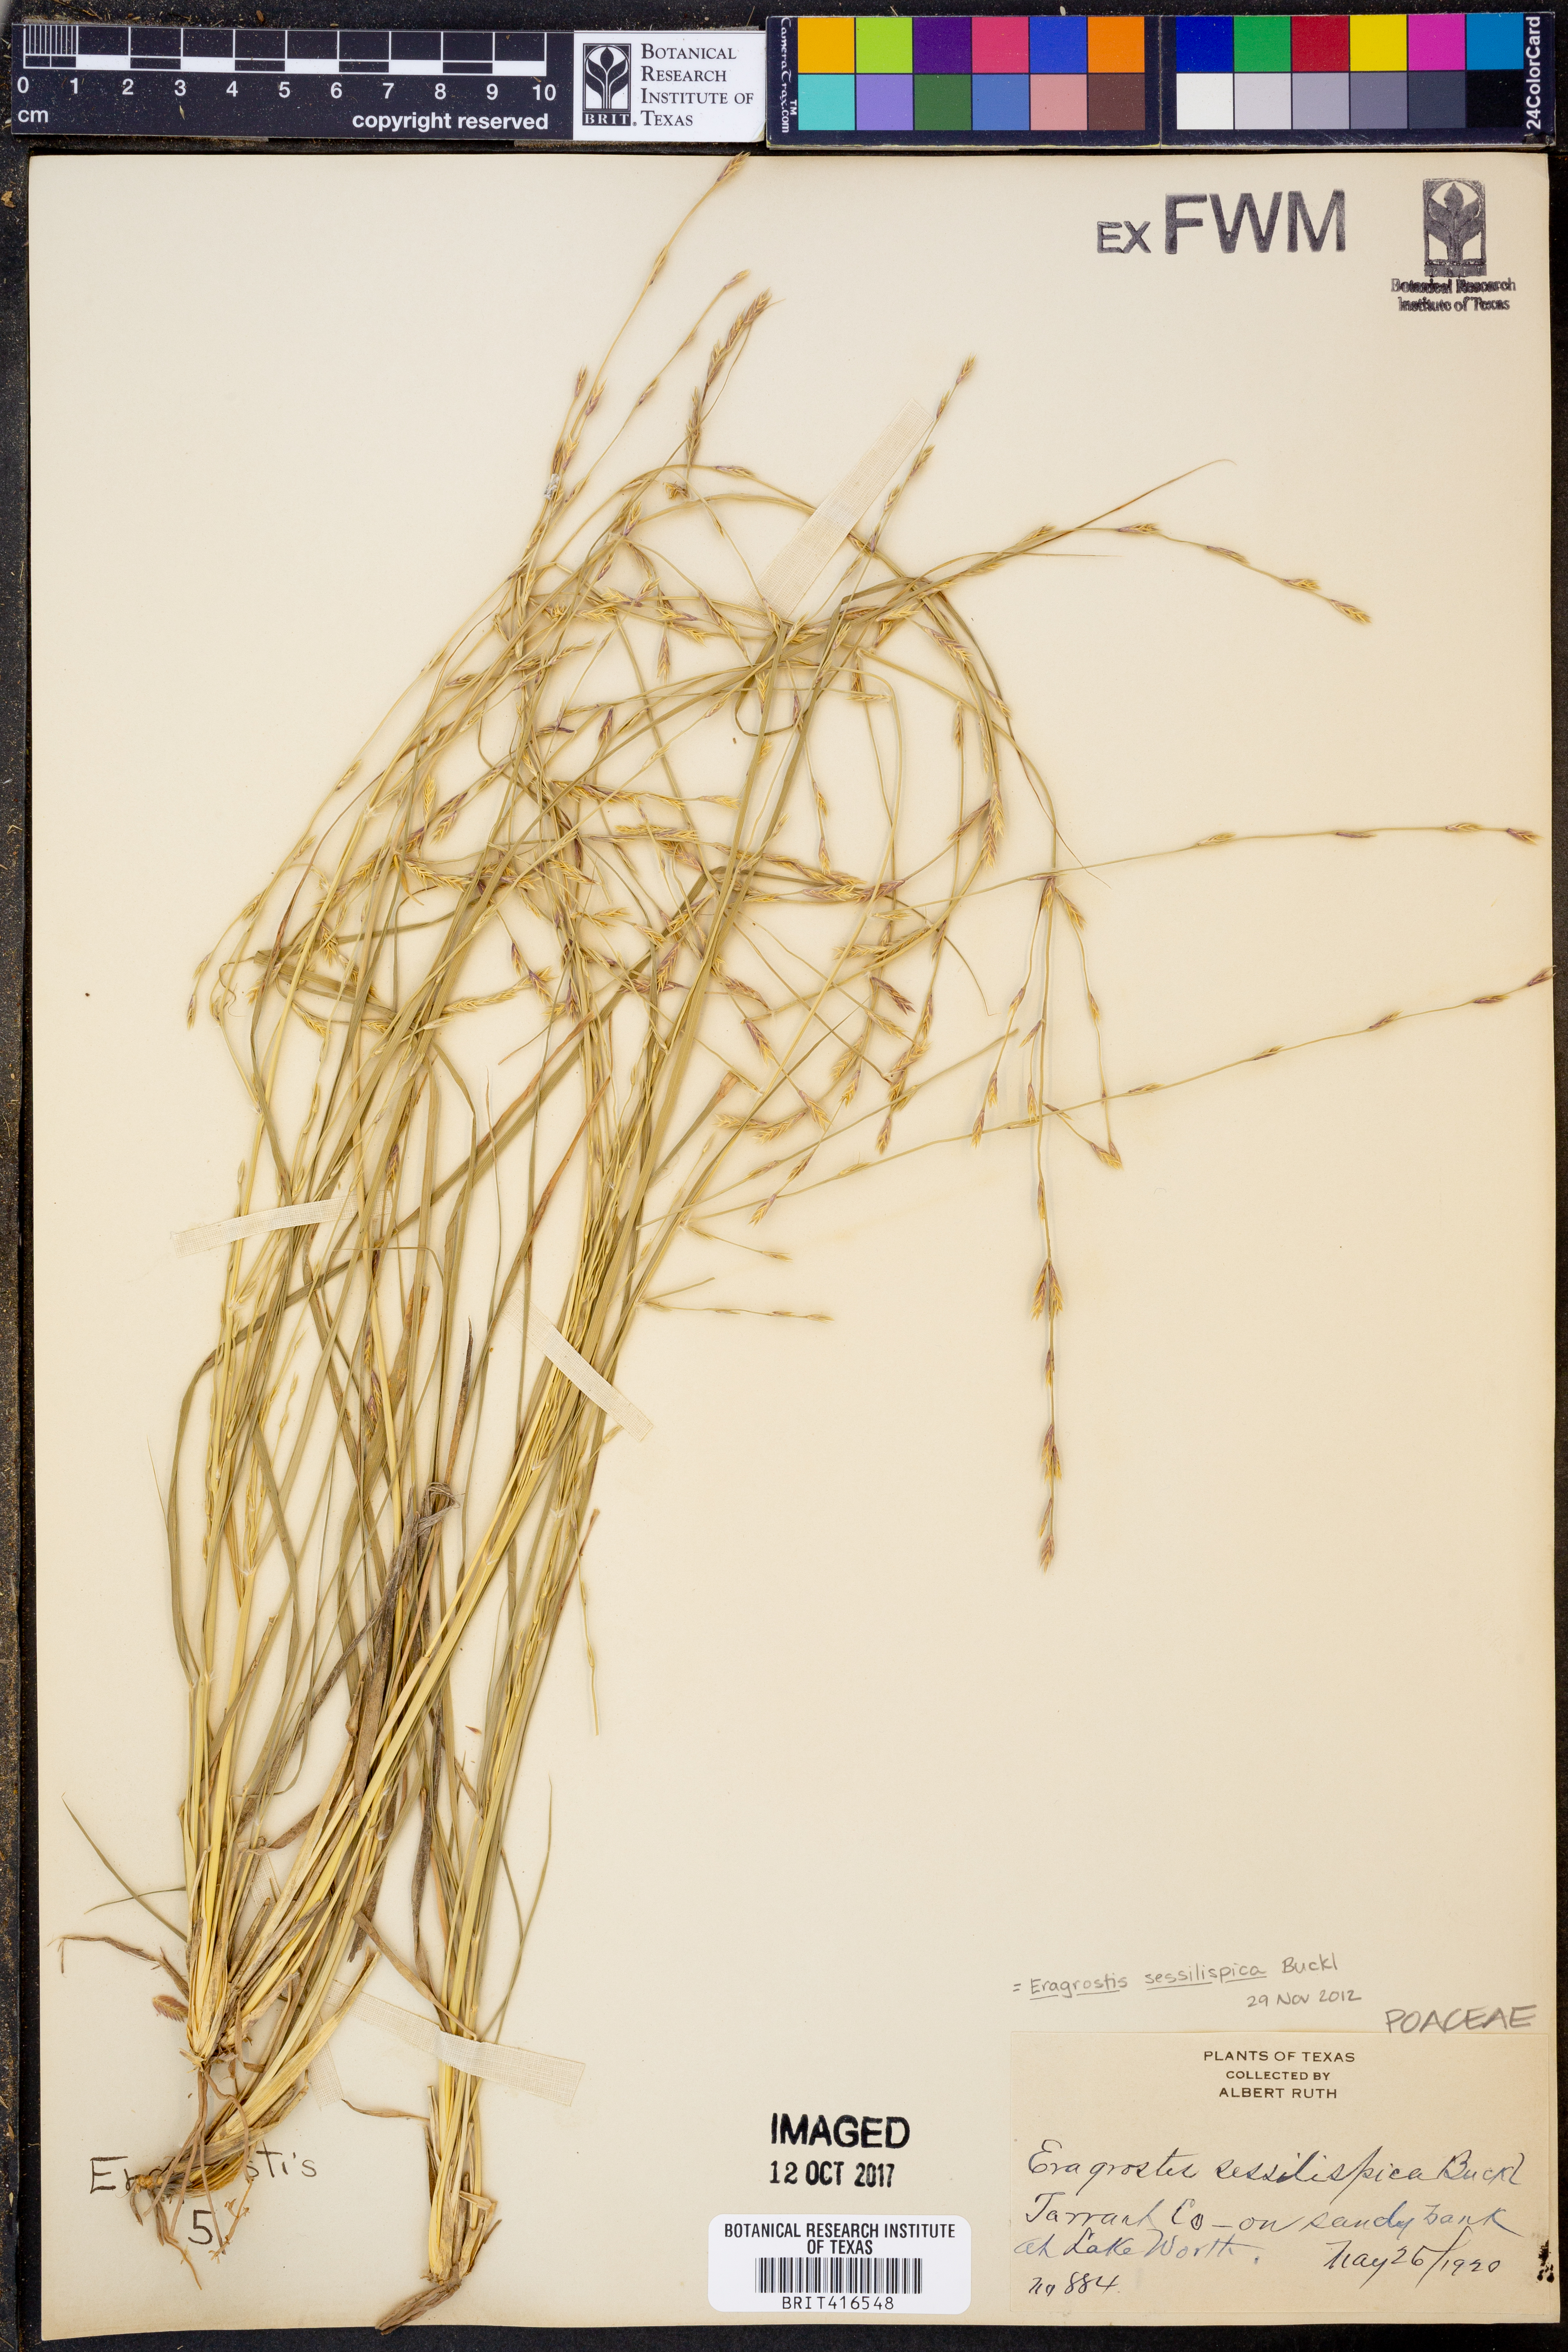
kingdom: Plantae
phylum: Tracheophyta
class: Liliopsida
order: Poales
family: Poaceae
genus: Eragrostis
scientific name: Eragrostis sessilispica
